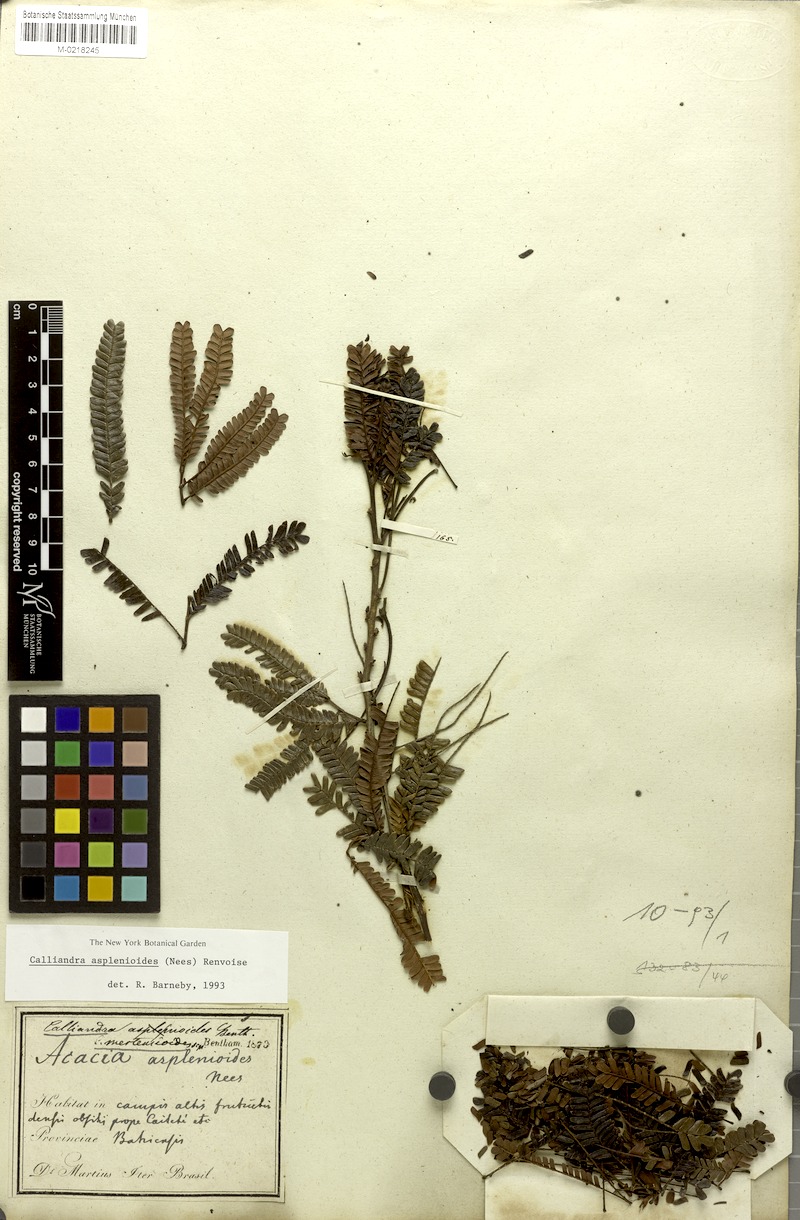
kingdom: Plantae
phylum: Tracheophyta
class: Magnoliopsida
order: Fabales
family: Fabaceae
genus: Calliandra
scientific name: Calliandra asplenioides
